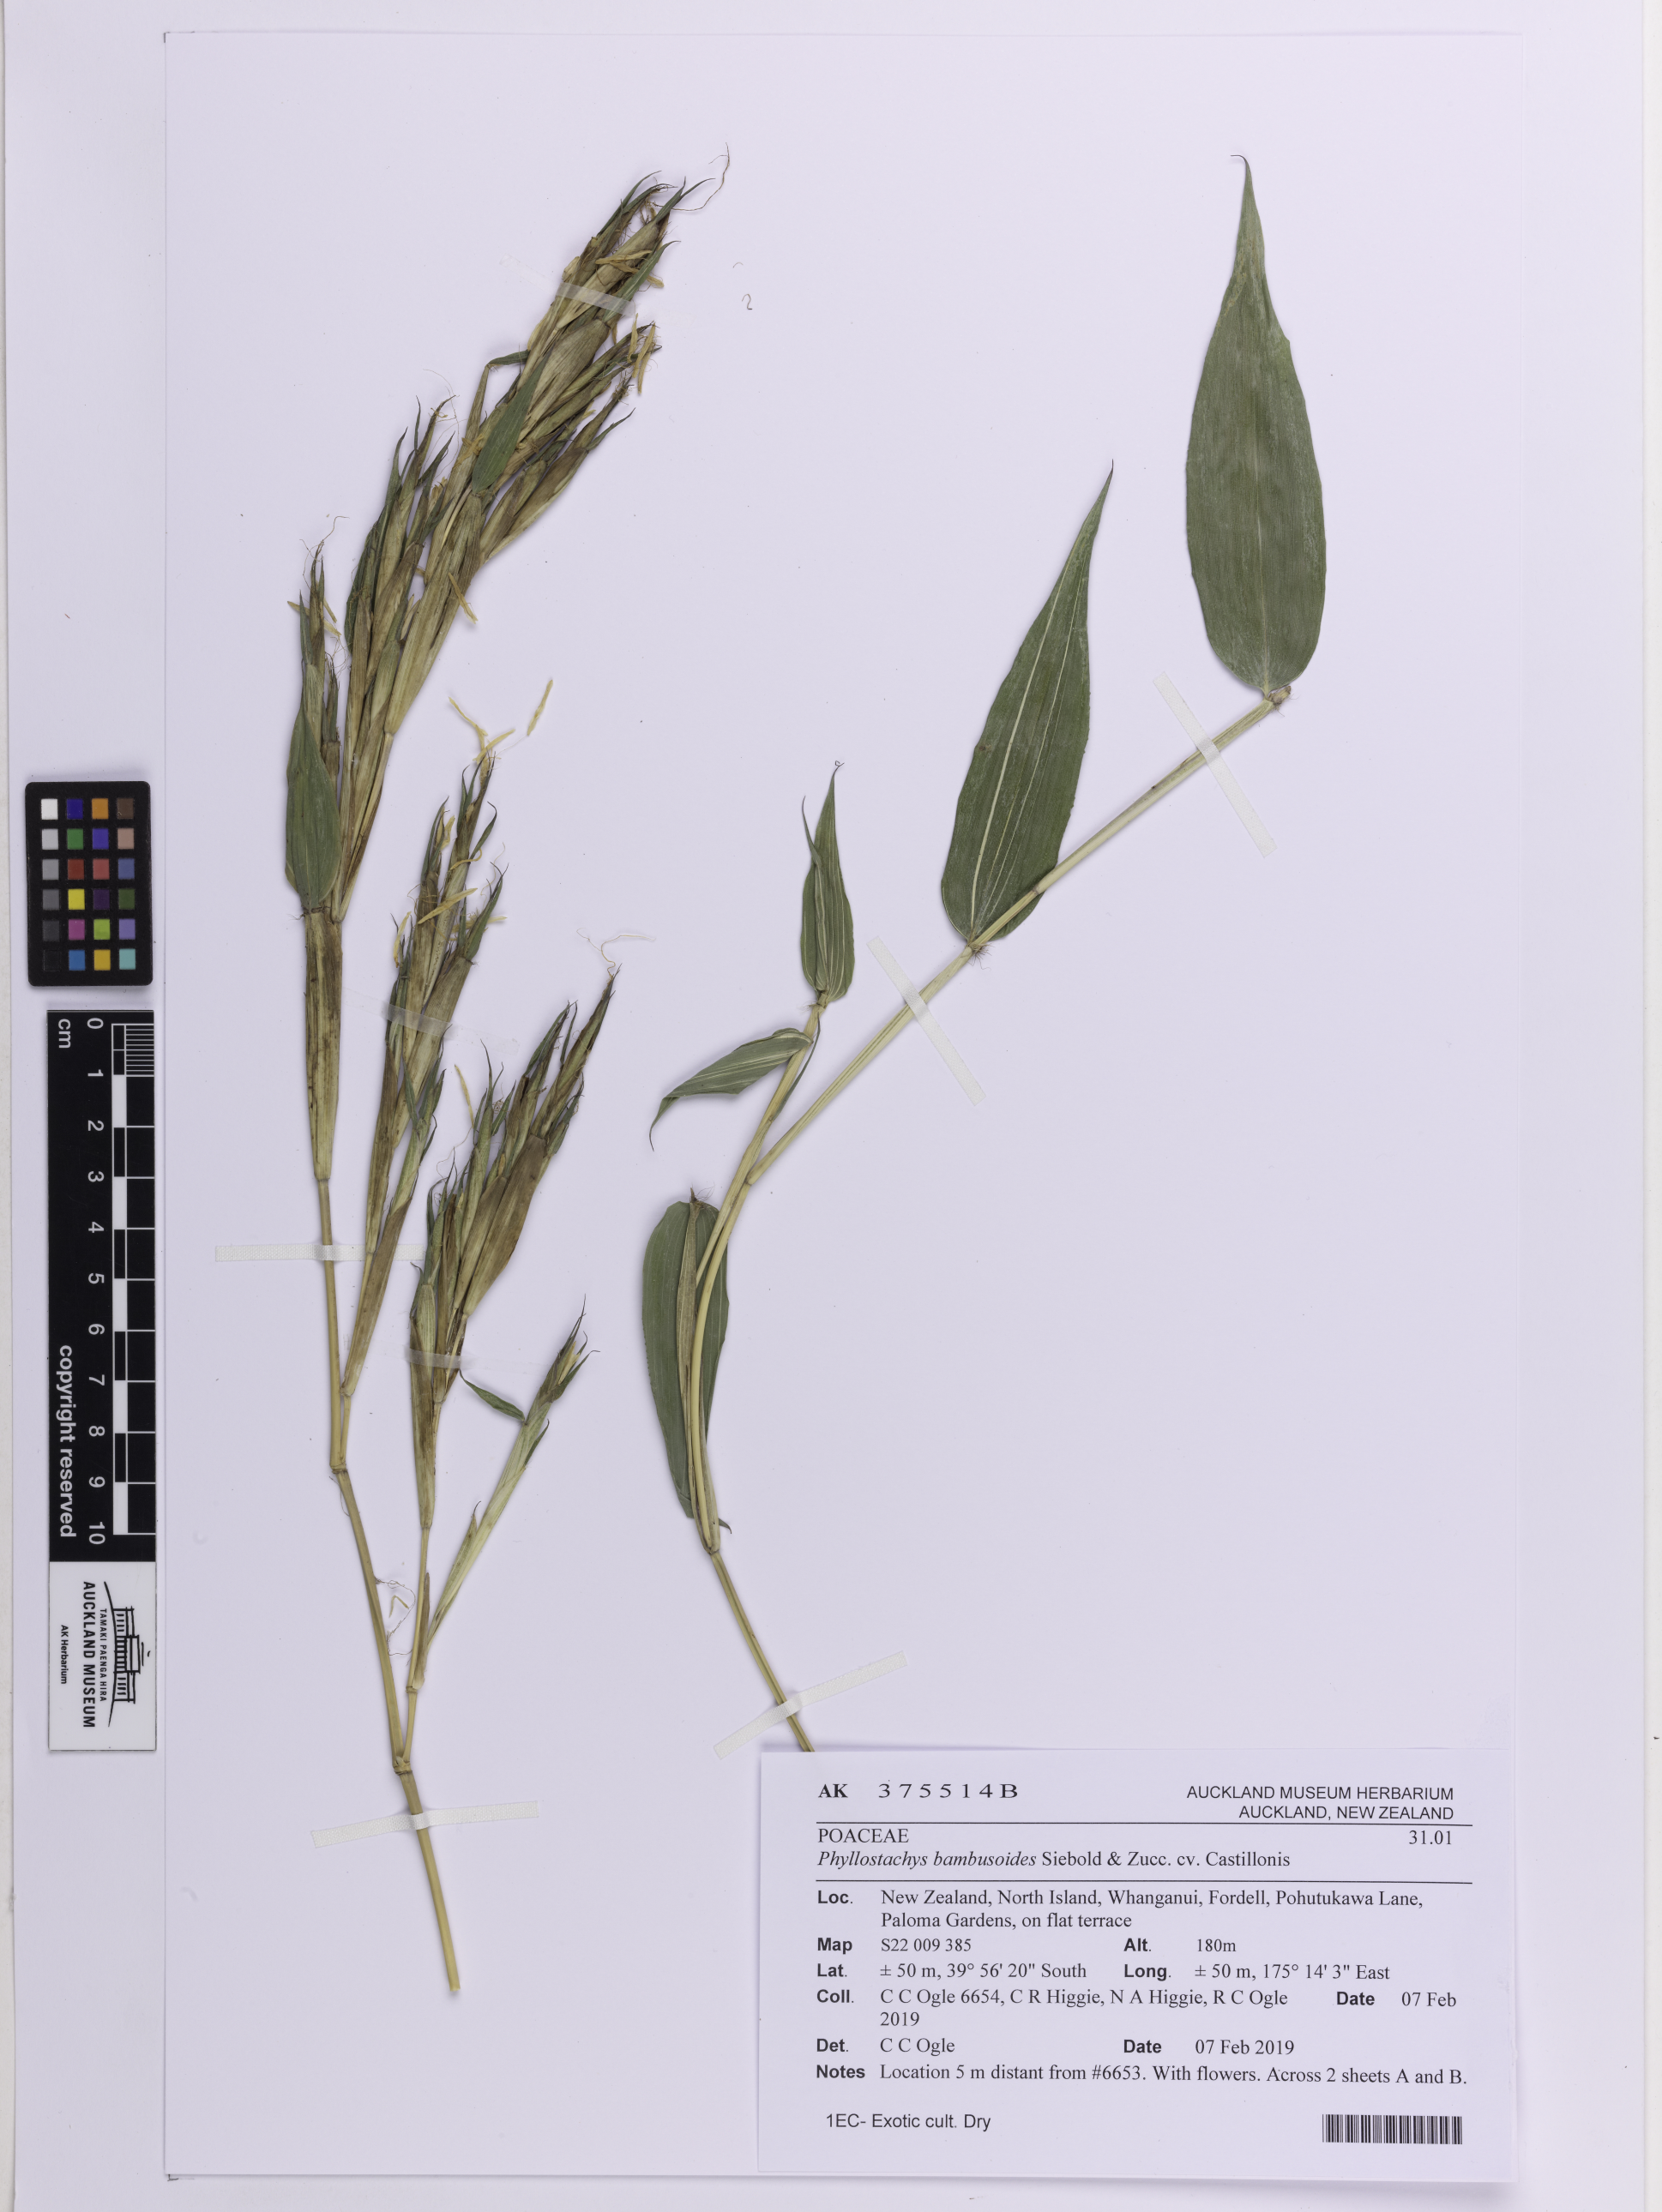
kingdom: Plantae
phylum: Tracheophyta
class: Liliopsida
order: Poales
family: Poaceae
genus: Phyllostachys
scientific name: Phyllostachys reticulata
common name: Bamboo
